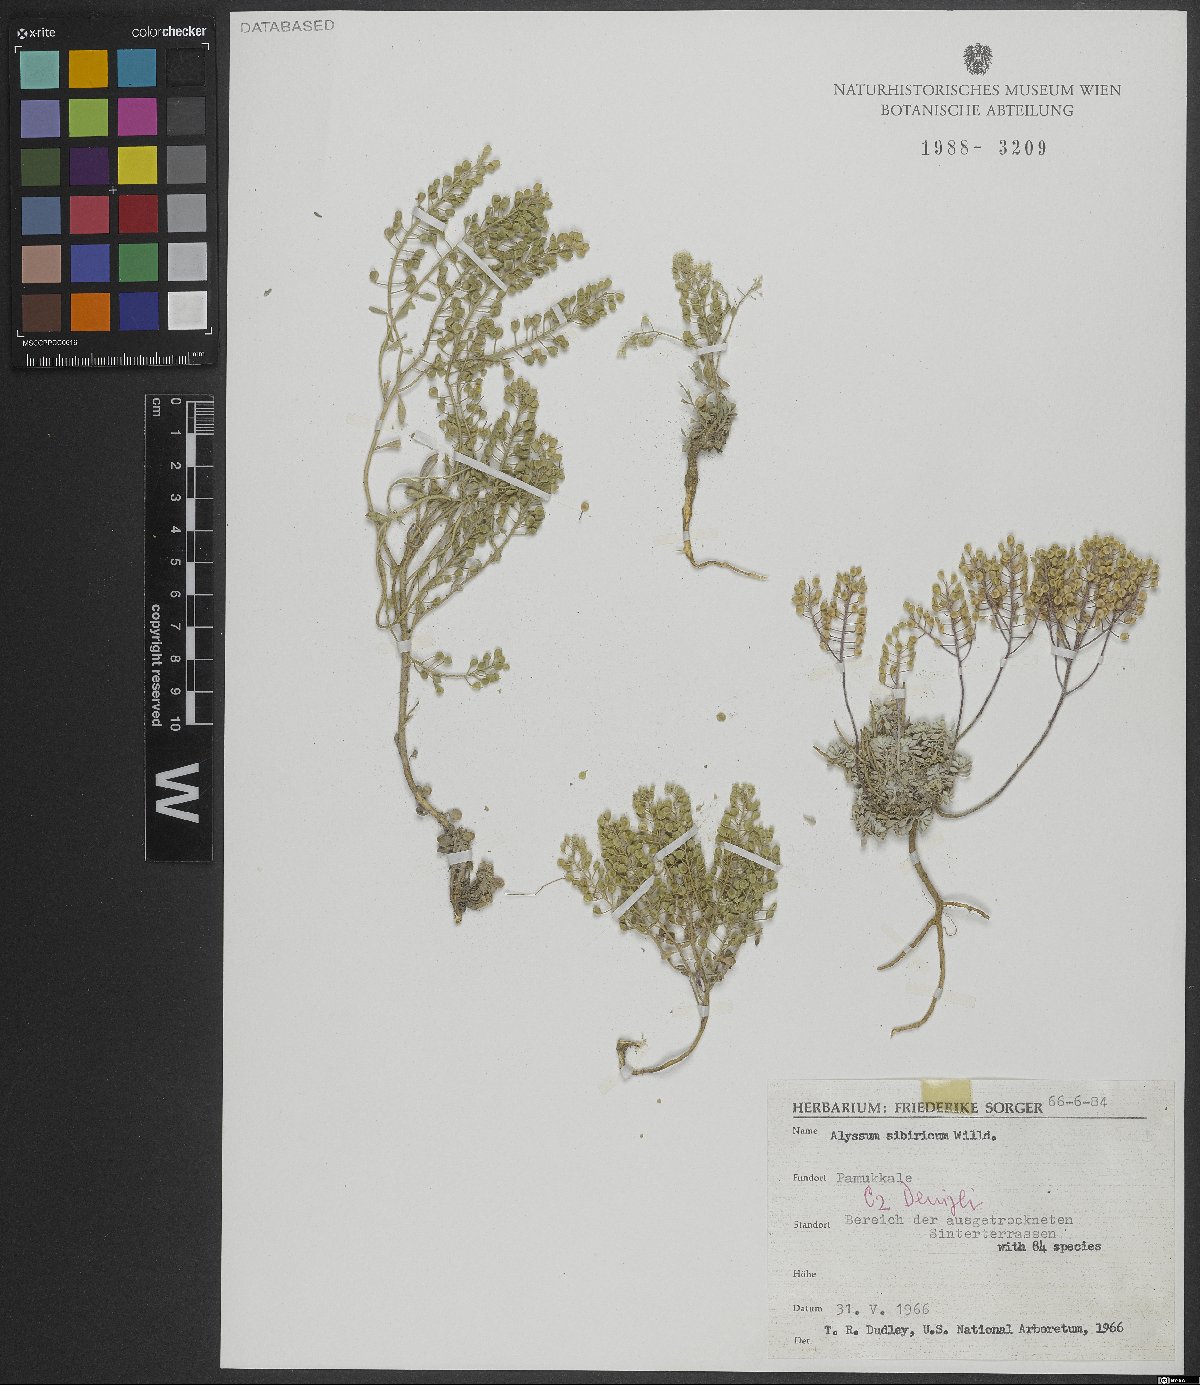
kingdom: Plantae
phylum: Tracheophyta
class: Magnoliopsida
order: Brassicales
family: Brassicaceae
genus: Odontarrhena
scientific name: Odontarrhena sibirica
